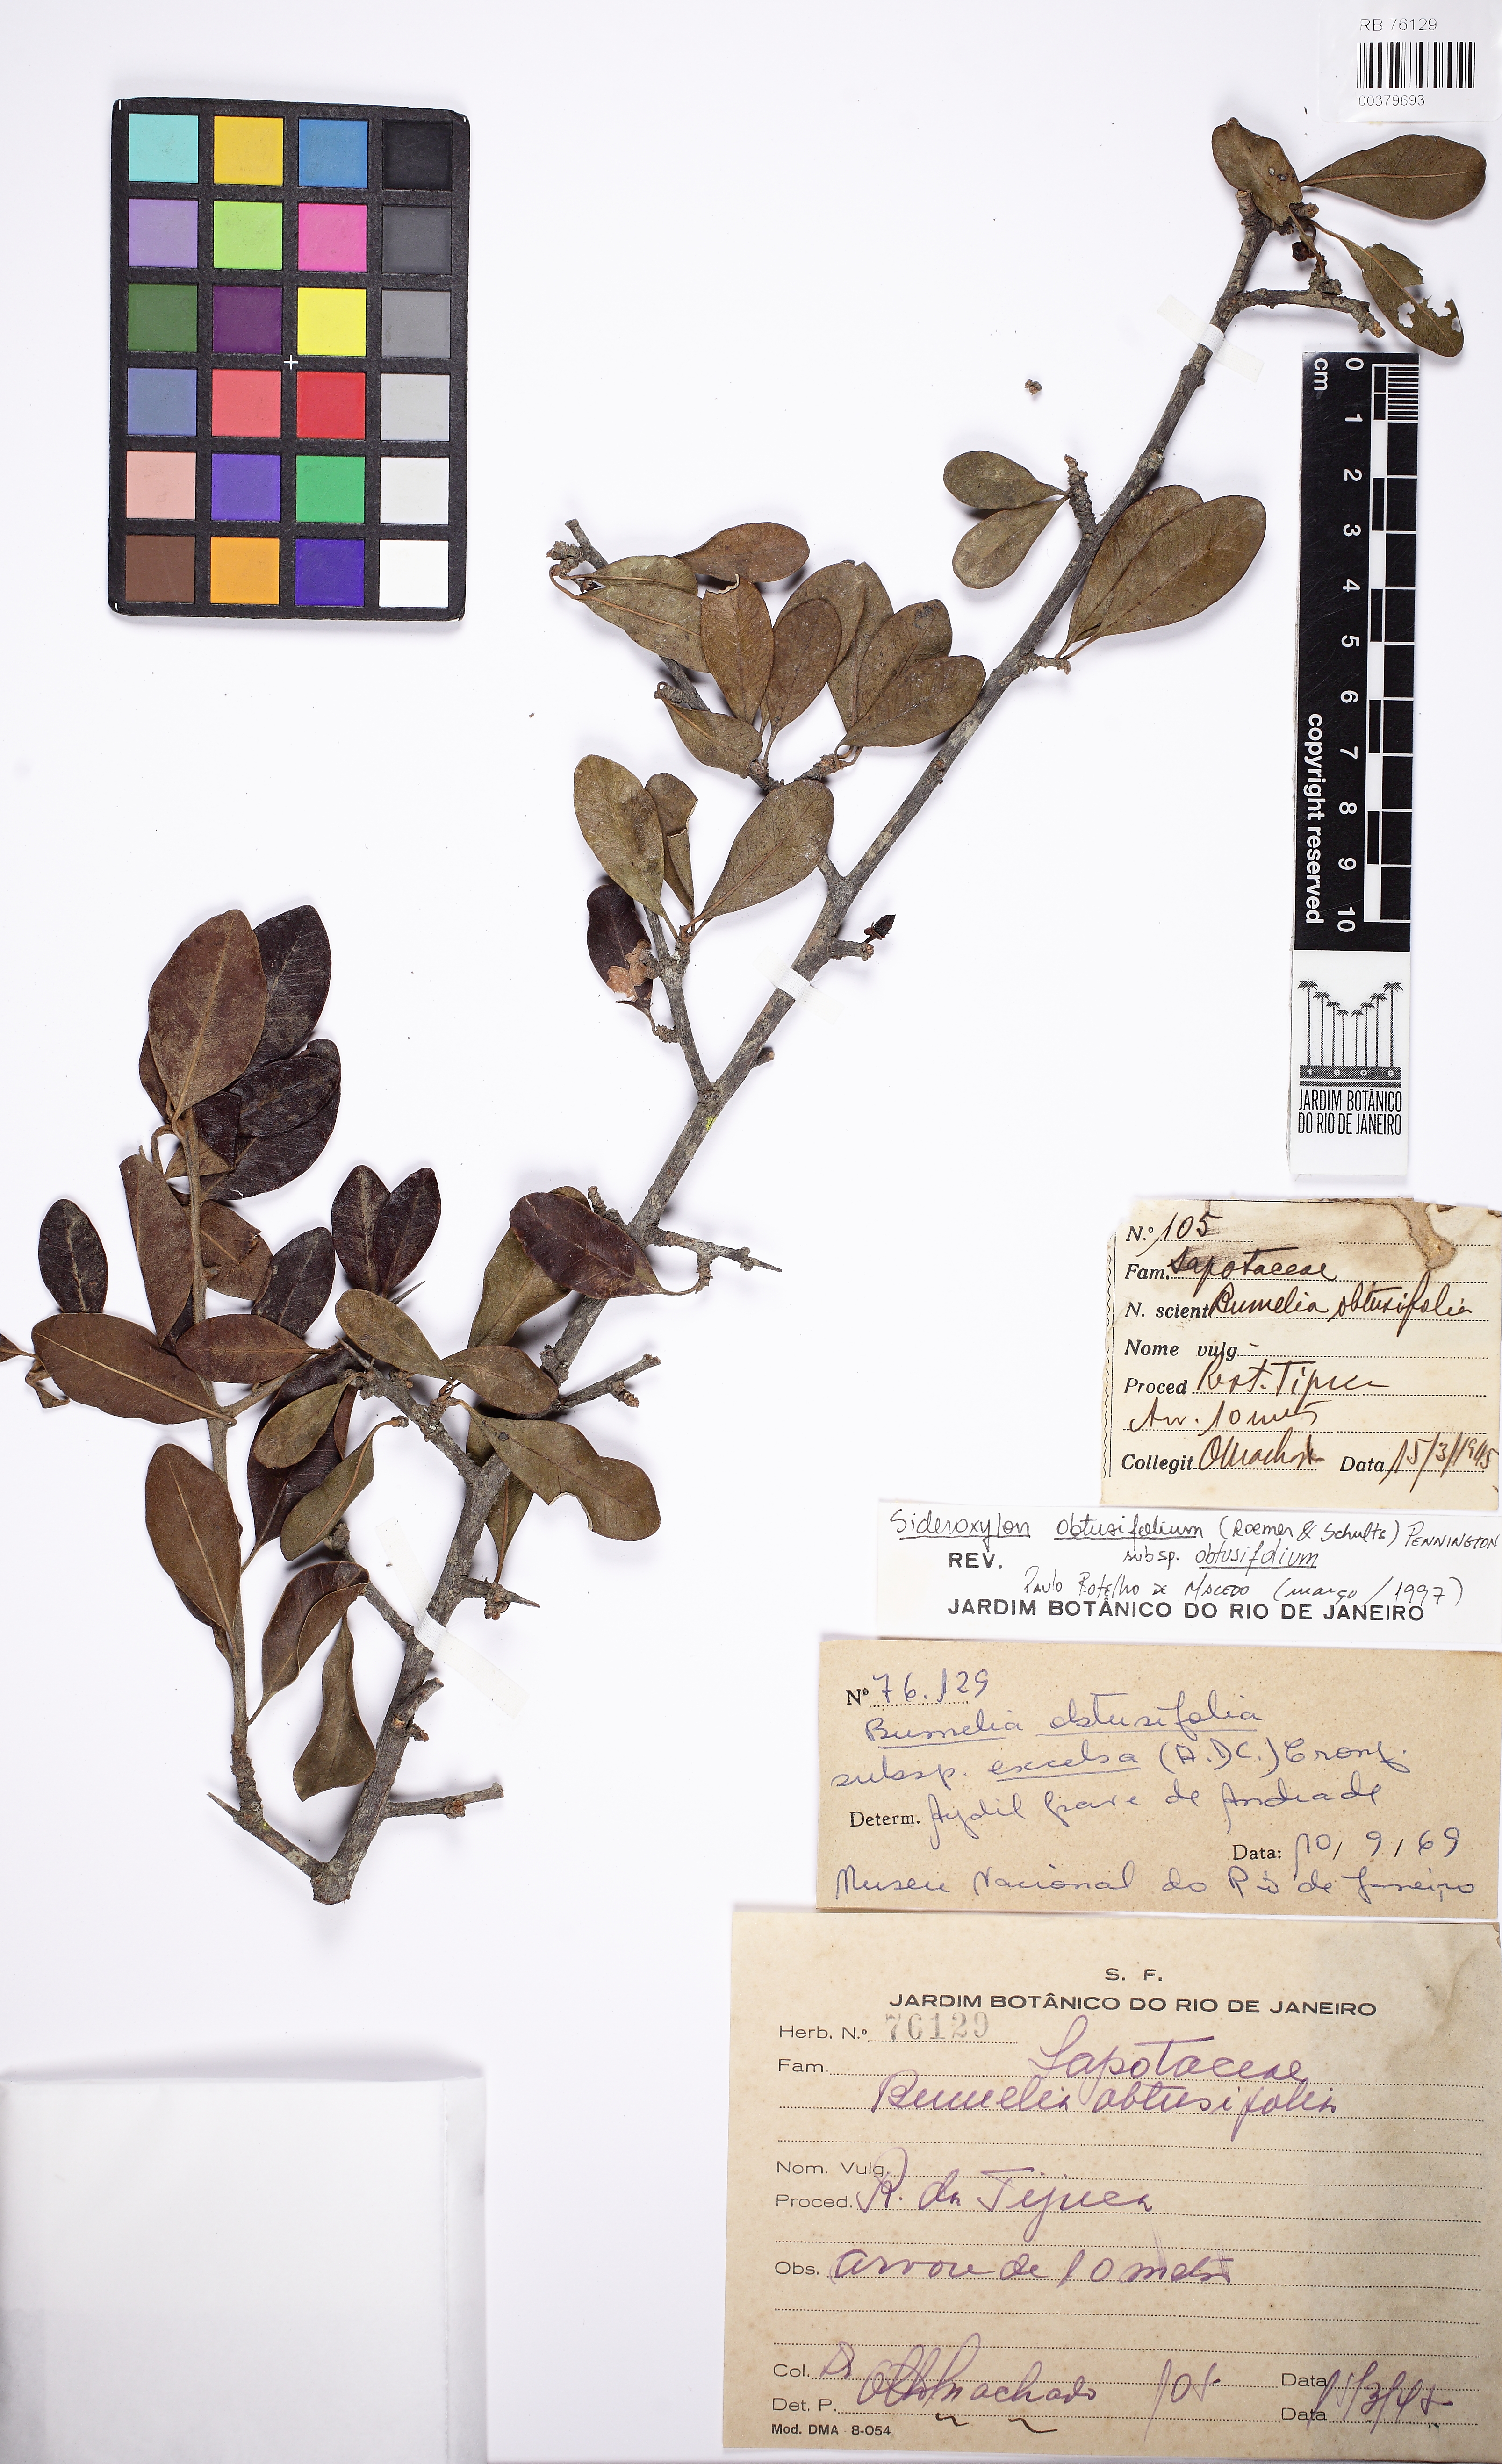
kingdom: Plantae
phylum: Tracheophyta
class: Magnoliopsida
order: Ericales
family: Sapotaceae
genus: Sideroxylon
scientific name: Sideroxylon obtusifolium
